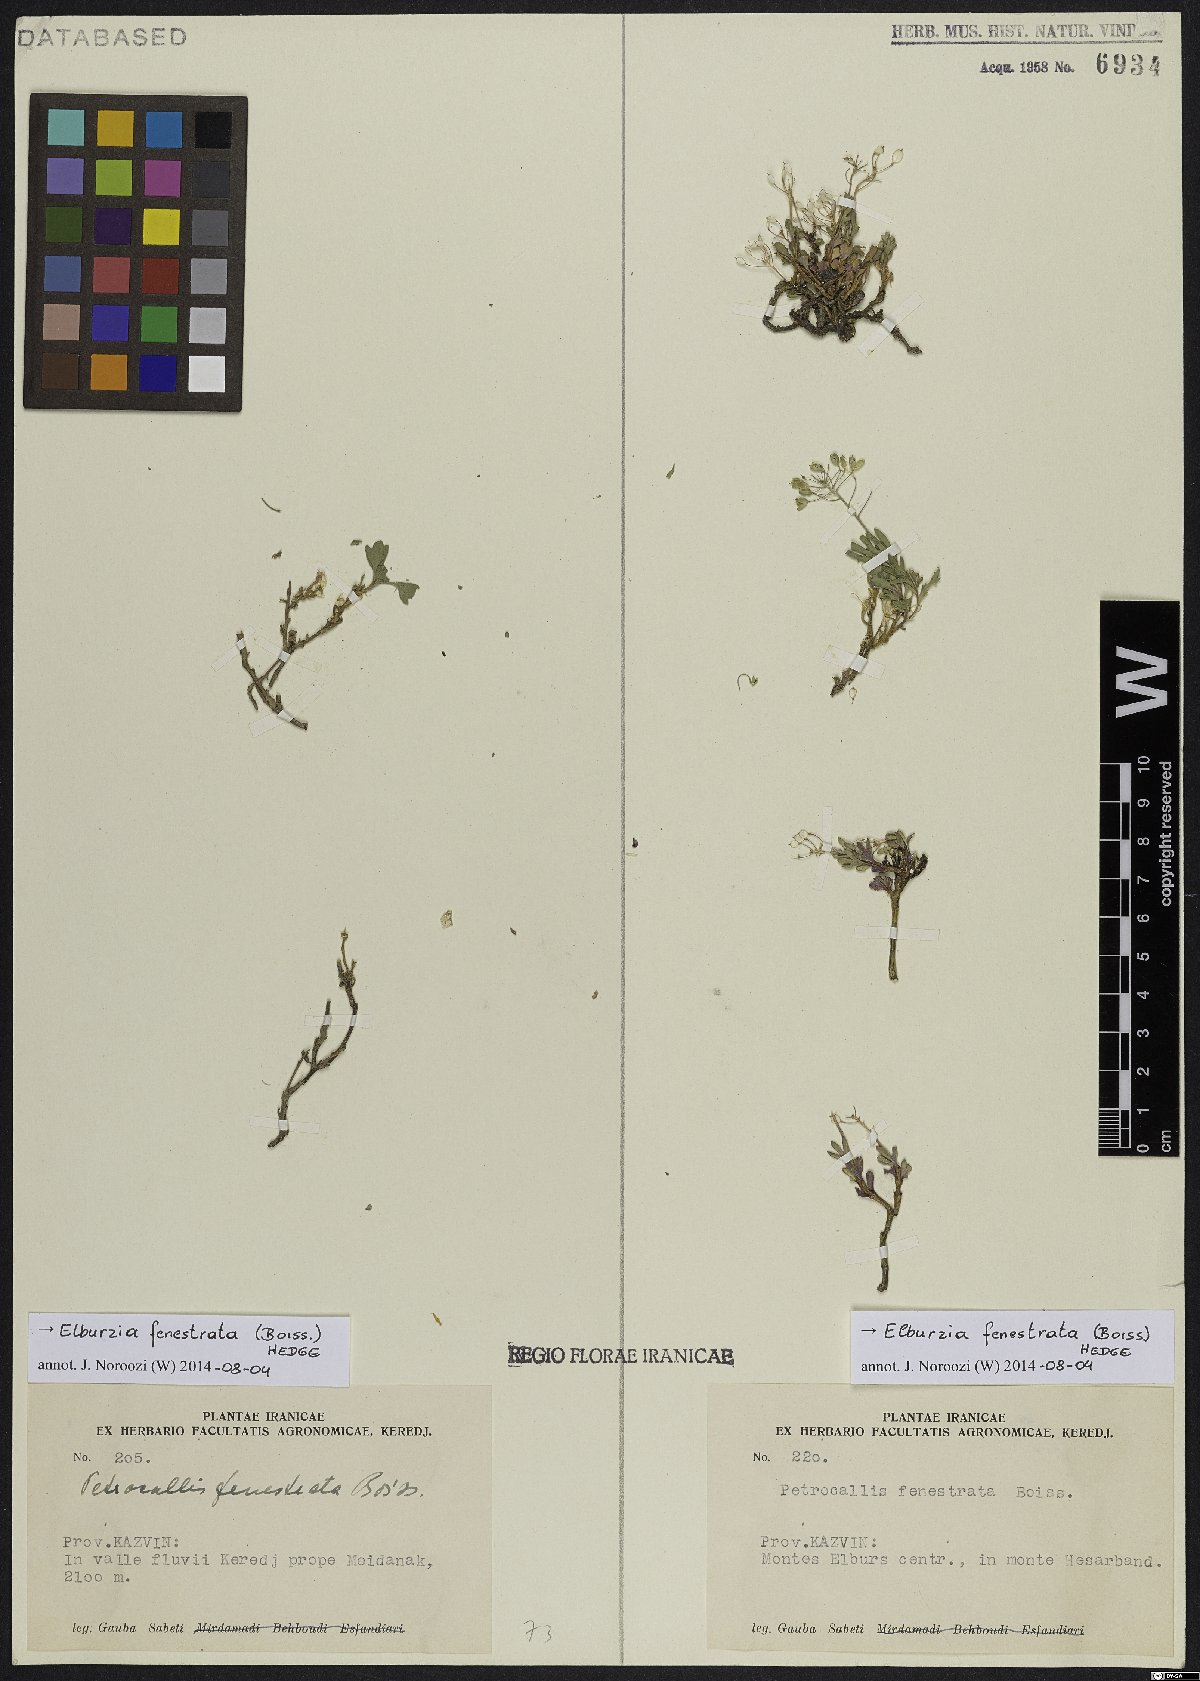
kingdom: Plantae
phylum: Tracheophyta
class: Magnoliopsida
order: Brassicales
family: Brassicaceae
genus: Didymophysa
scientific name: Didymophysa fenestrata
